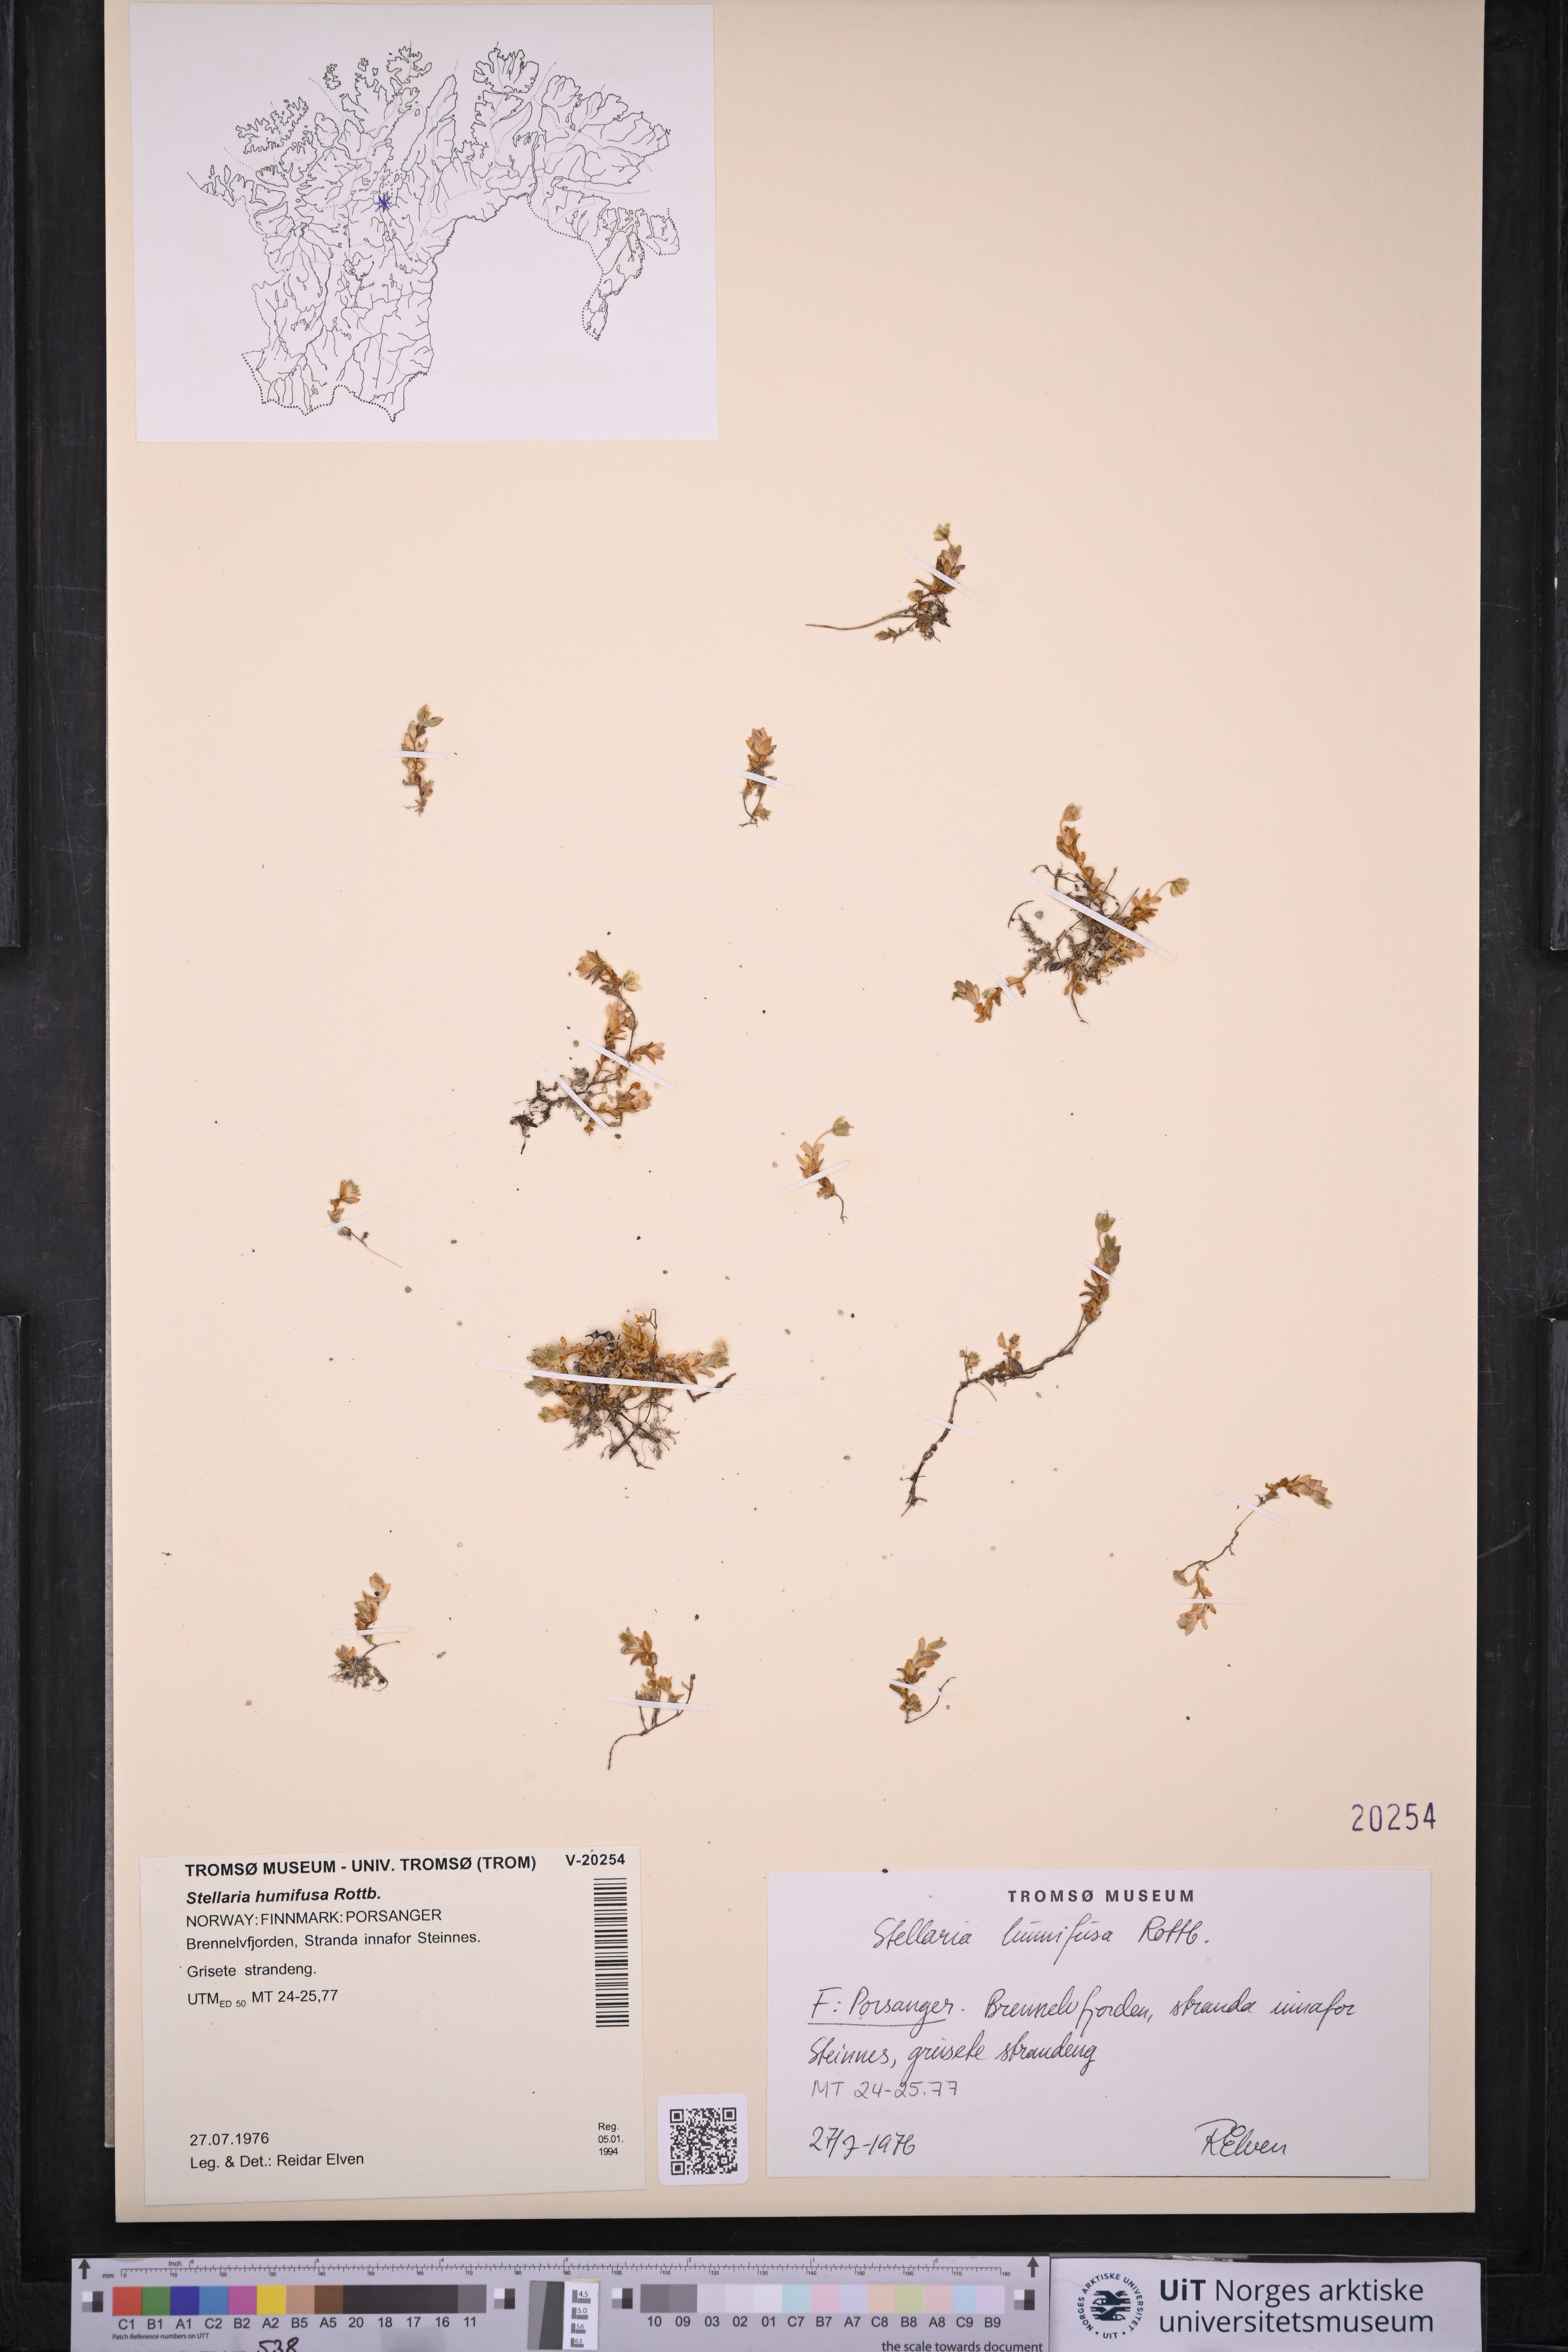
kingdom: Plantae
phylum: Tracheophyta
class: Magnoliopsida
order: Caryophyllales
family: Caryophyllaceae
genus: Stellaria
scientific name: Stellaria humifusa
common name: Creeping starwort
